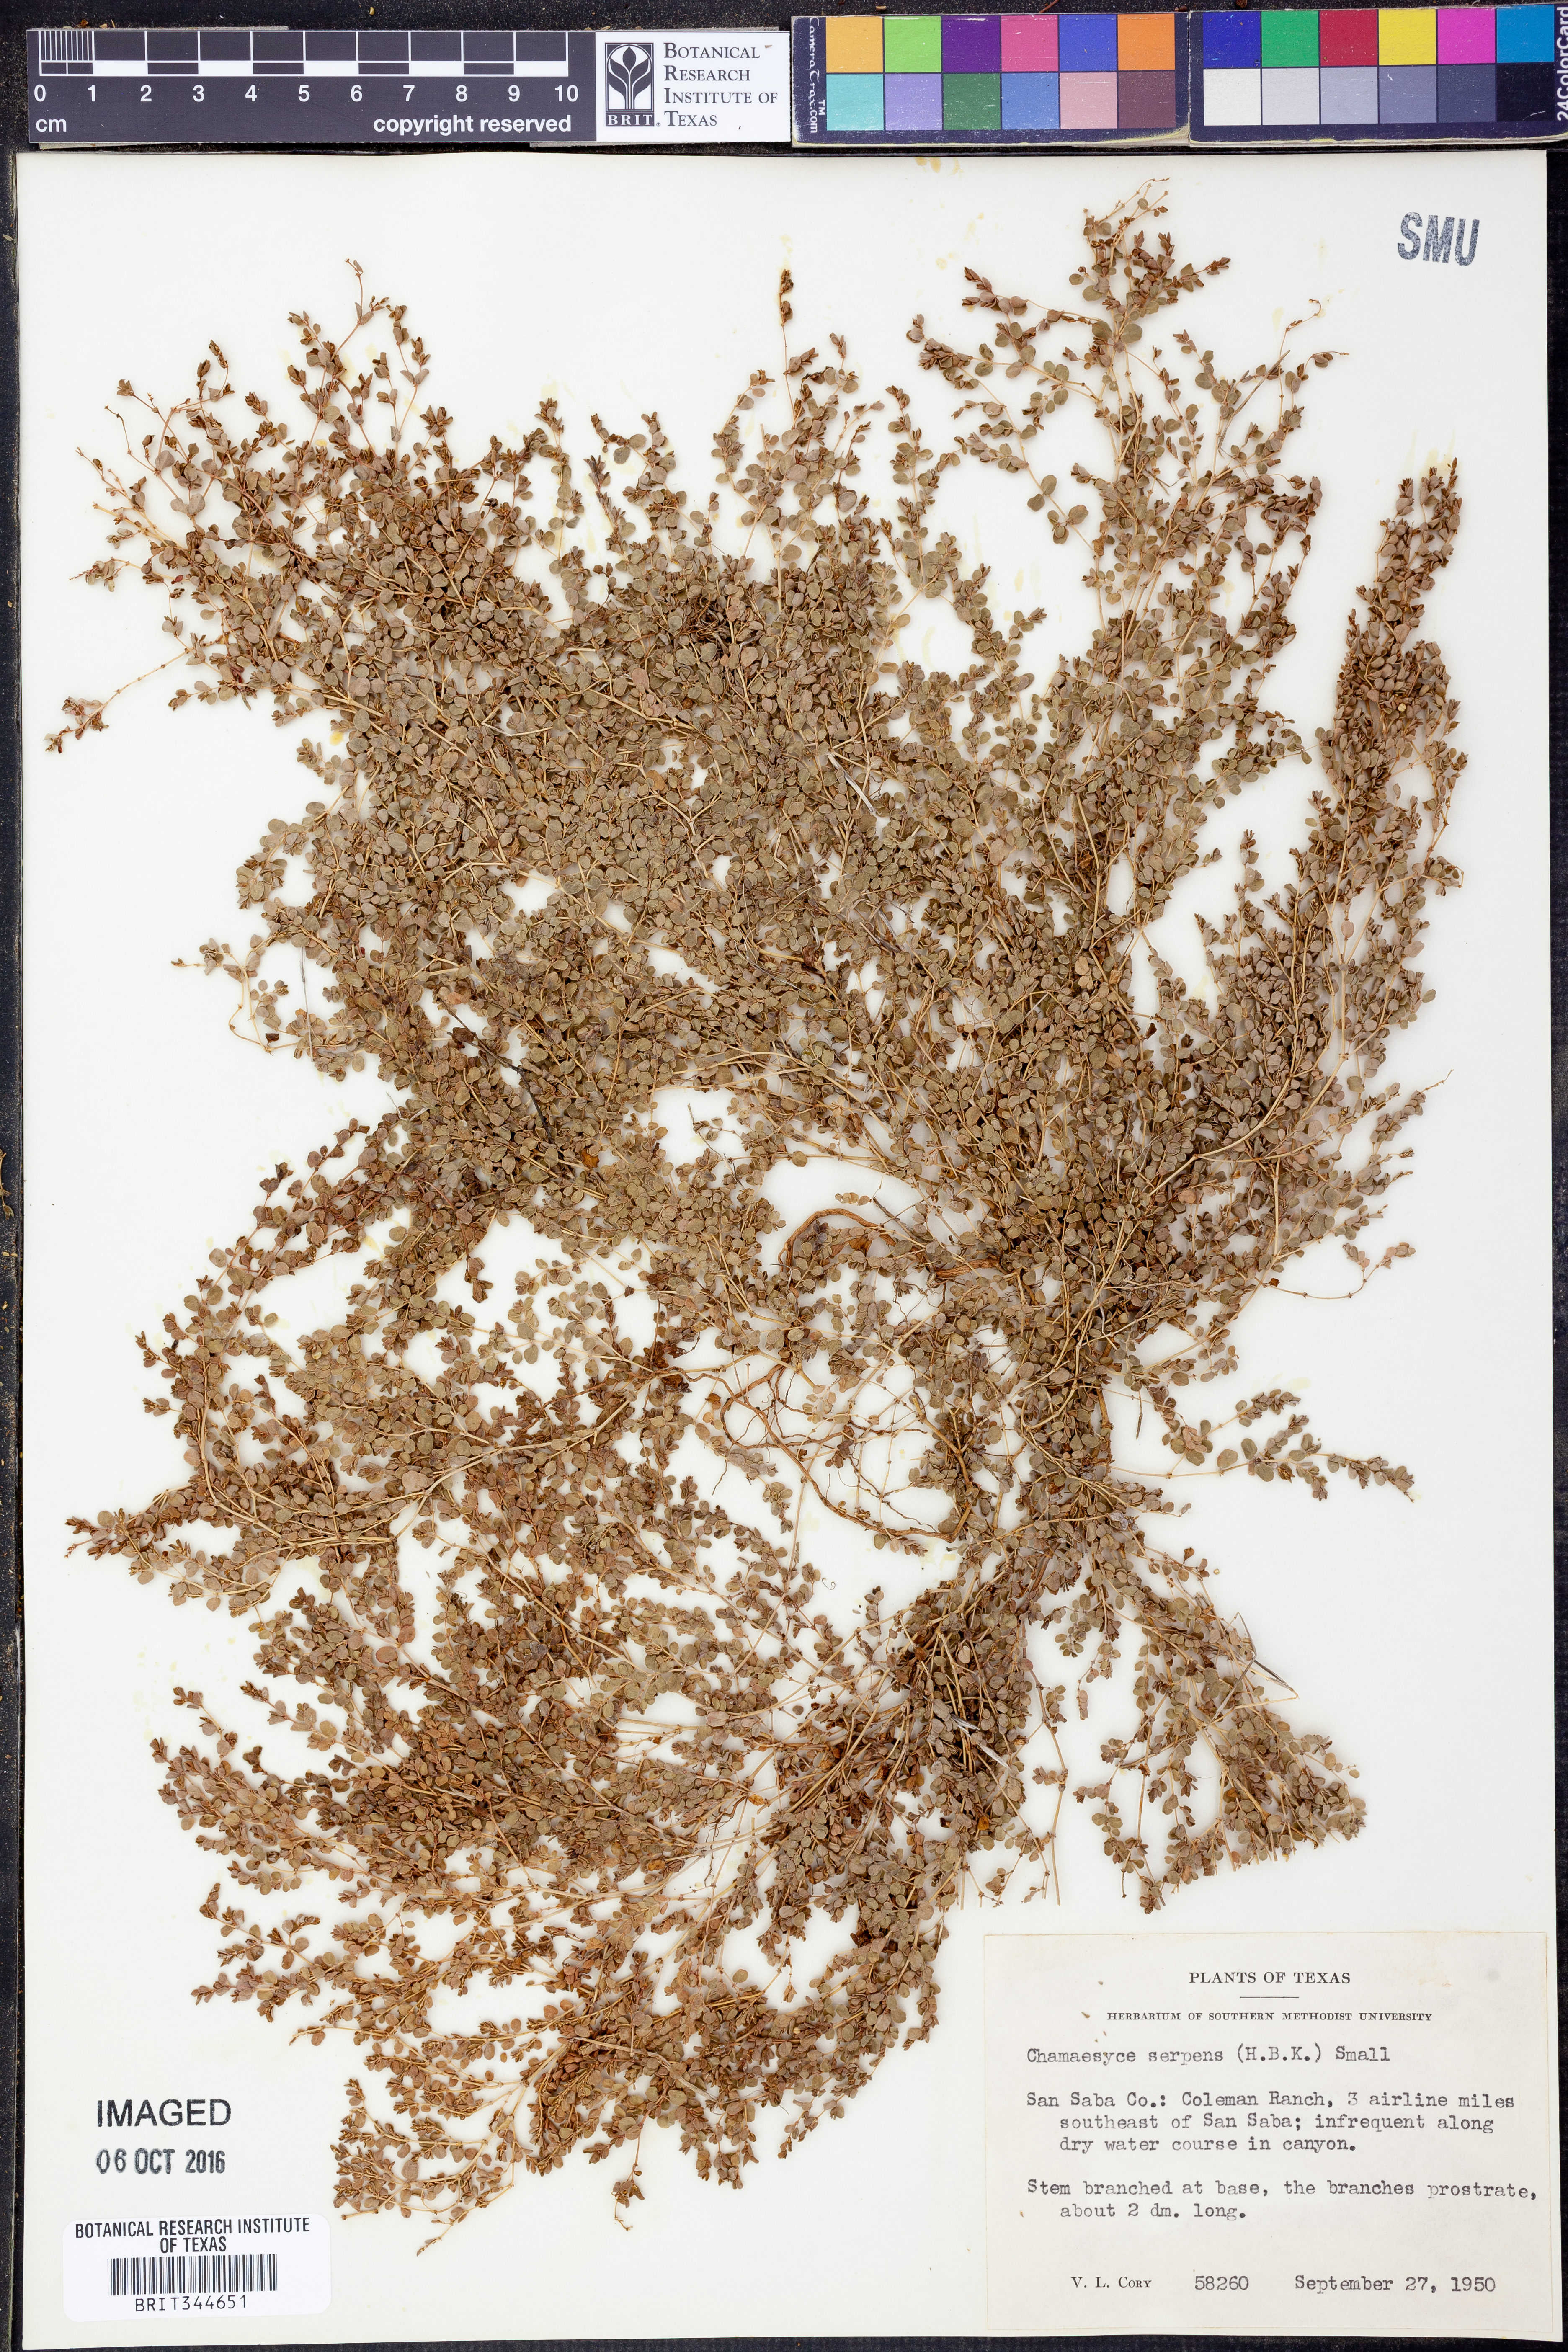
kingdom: Plantae
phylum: Tracheophyta
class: Magnoliopsida
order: Malpighiales
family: Euphorbiaceae
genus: Euphorbia
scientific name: Euphorbia serpens
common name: Matted sandmat
